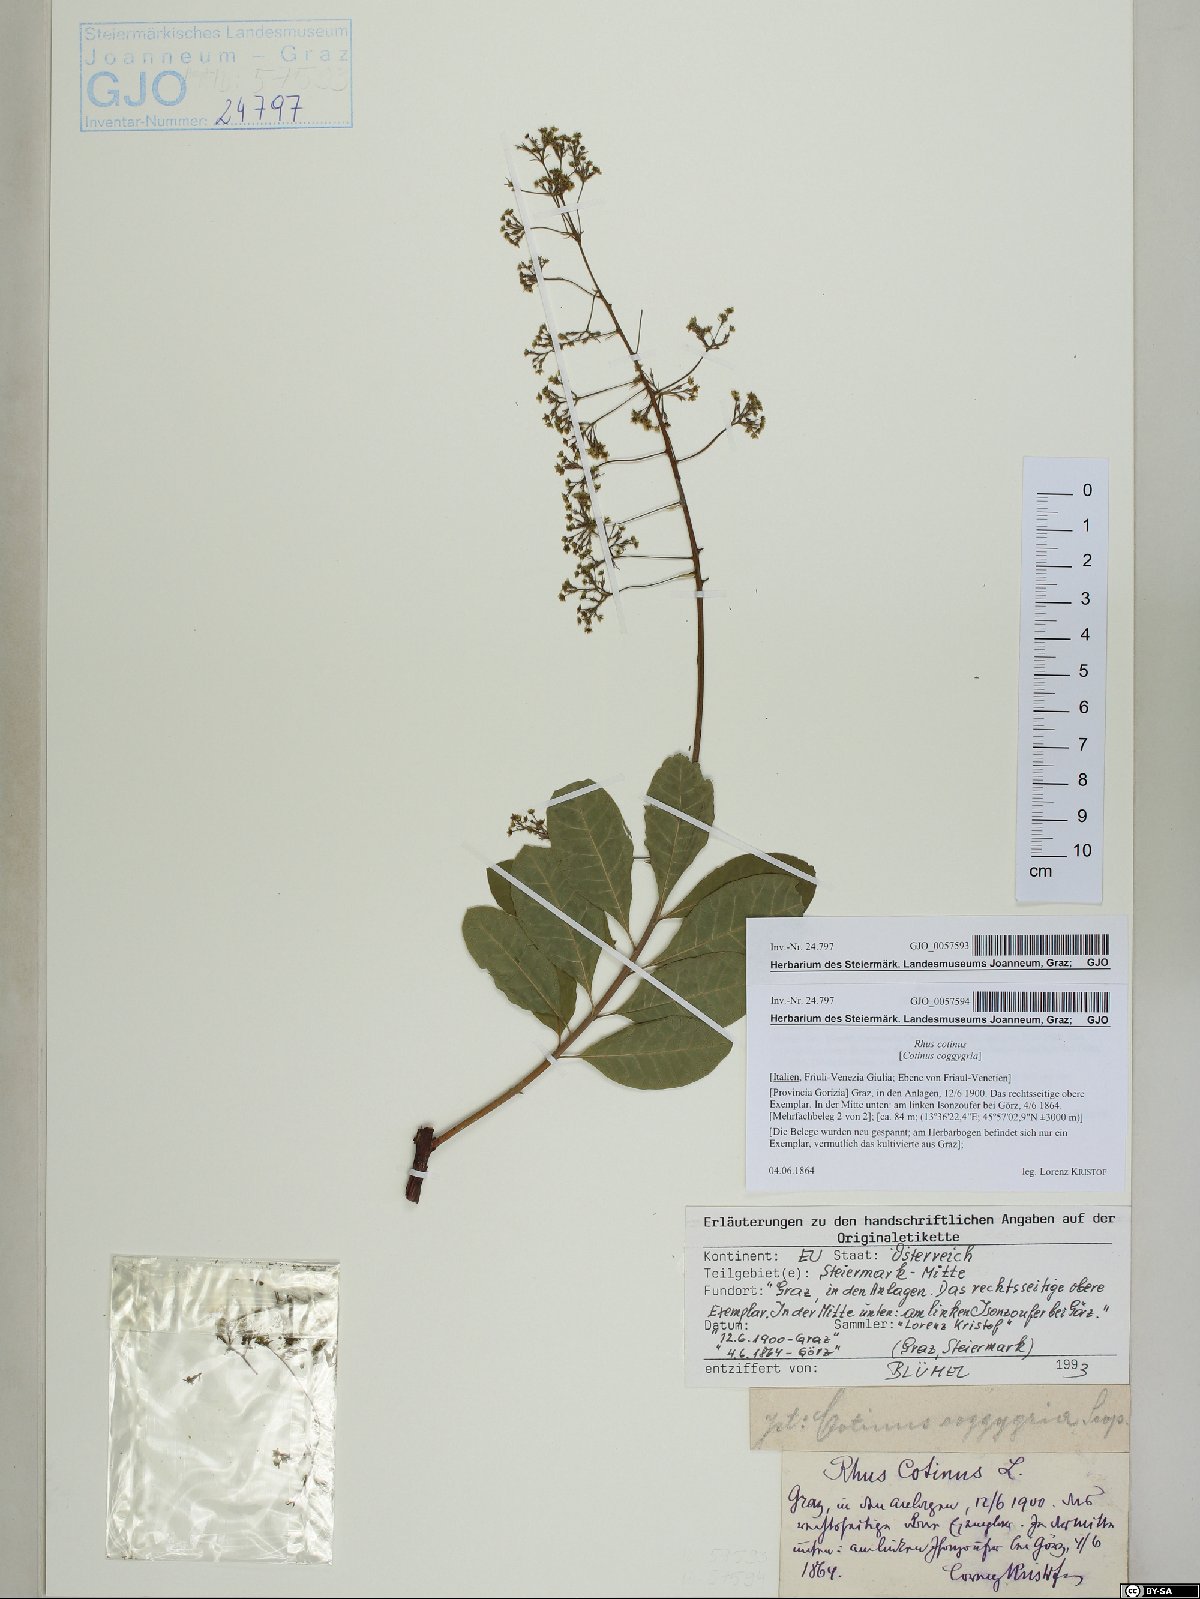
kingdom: Plantae
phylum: Tracheophyta
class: Magnoliopsida
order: Sapindales
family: Anacardiaceae
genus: Cotinus
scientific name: Cotinus coggygria
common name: Smoke-tree
